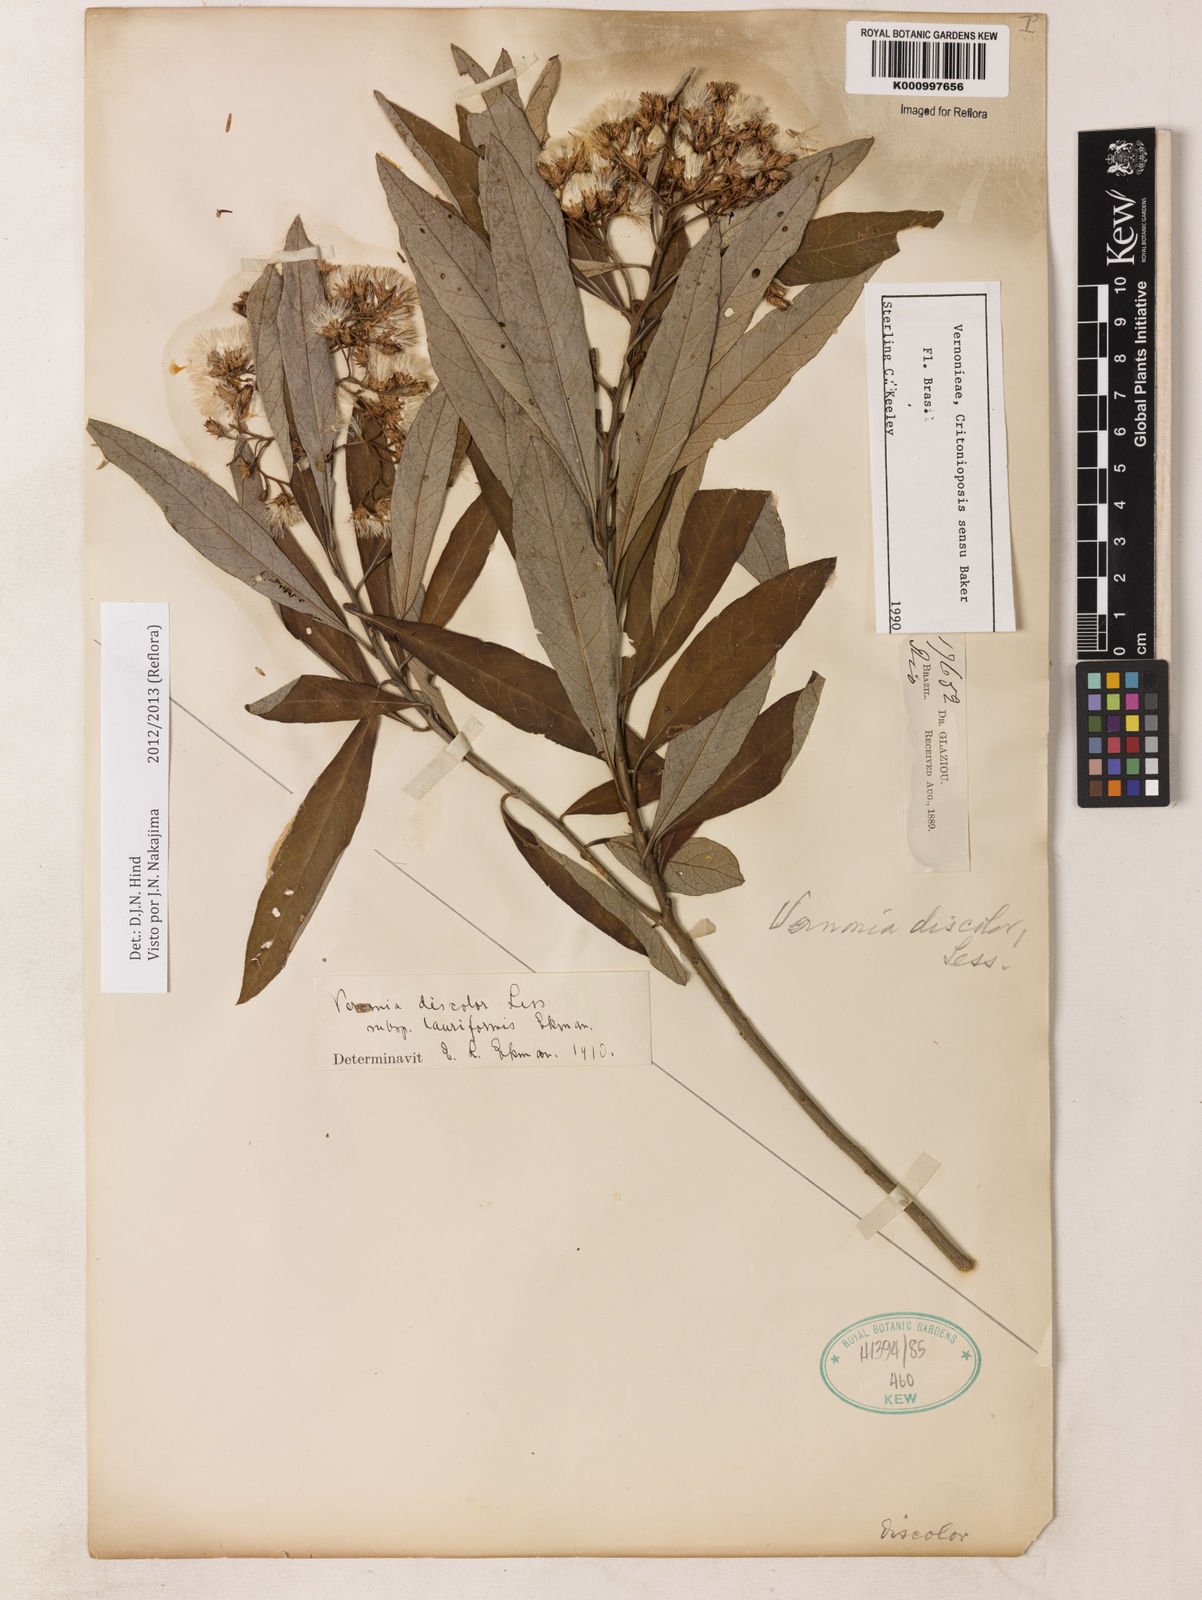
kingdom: Plantae
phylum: Tracheophyta
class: Magnoliopsida
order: Asterales
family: Asteraceae
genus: Vernonanthura
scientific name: Vernonanthura discolor
